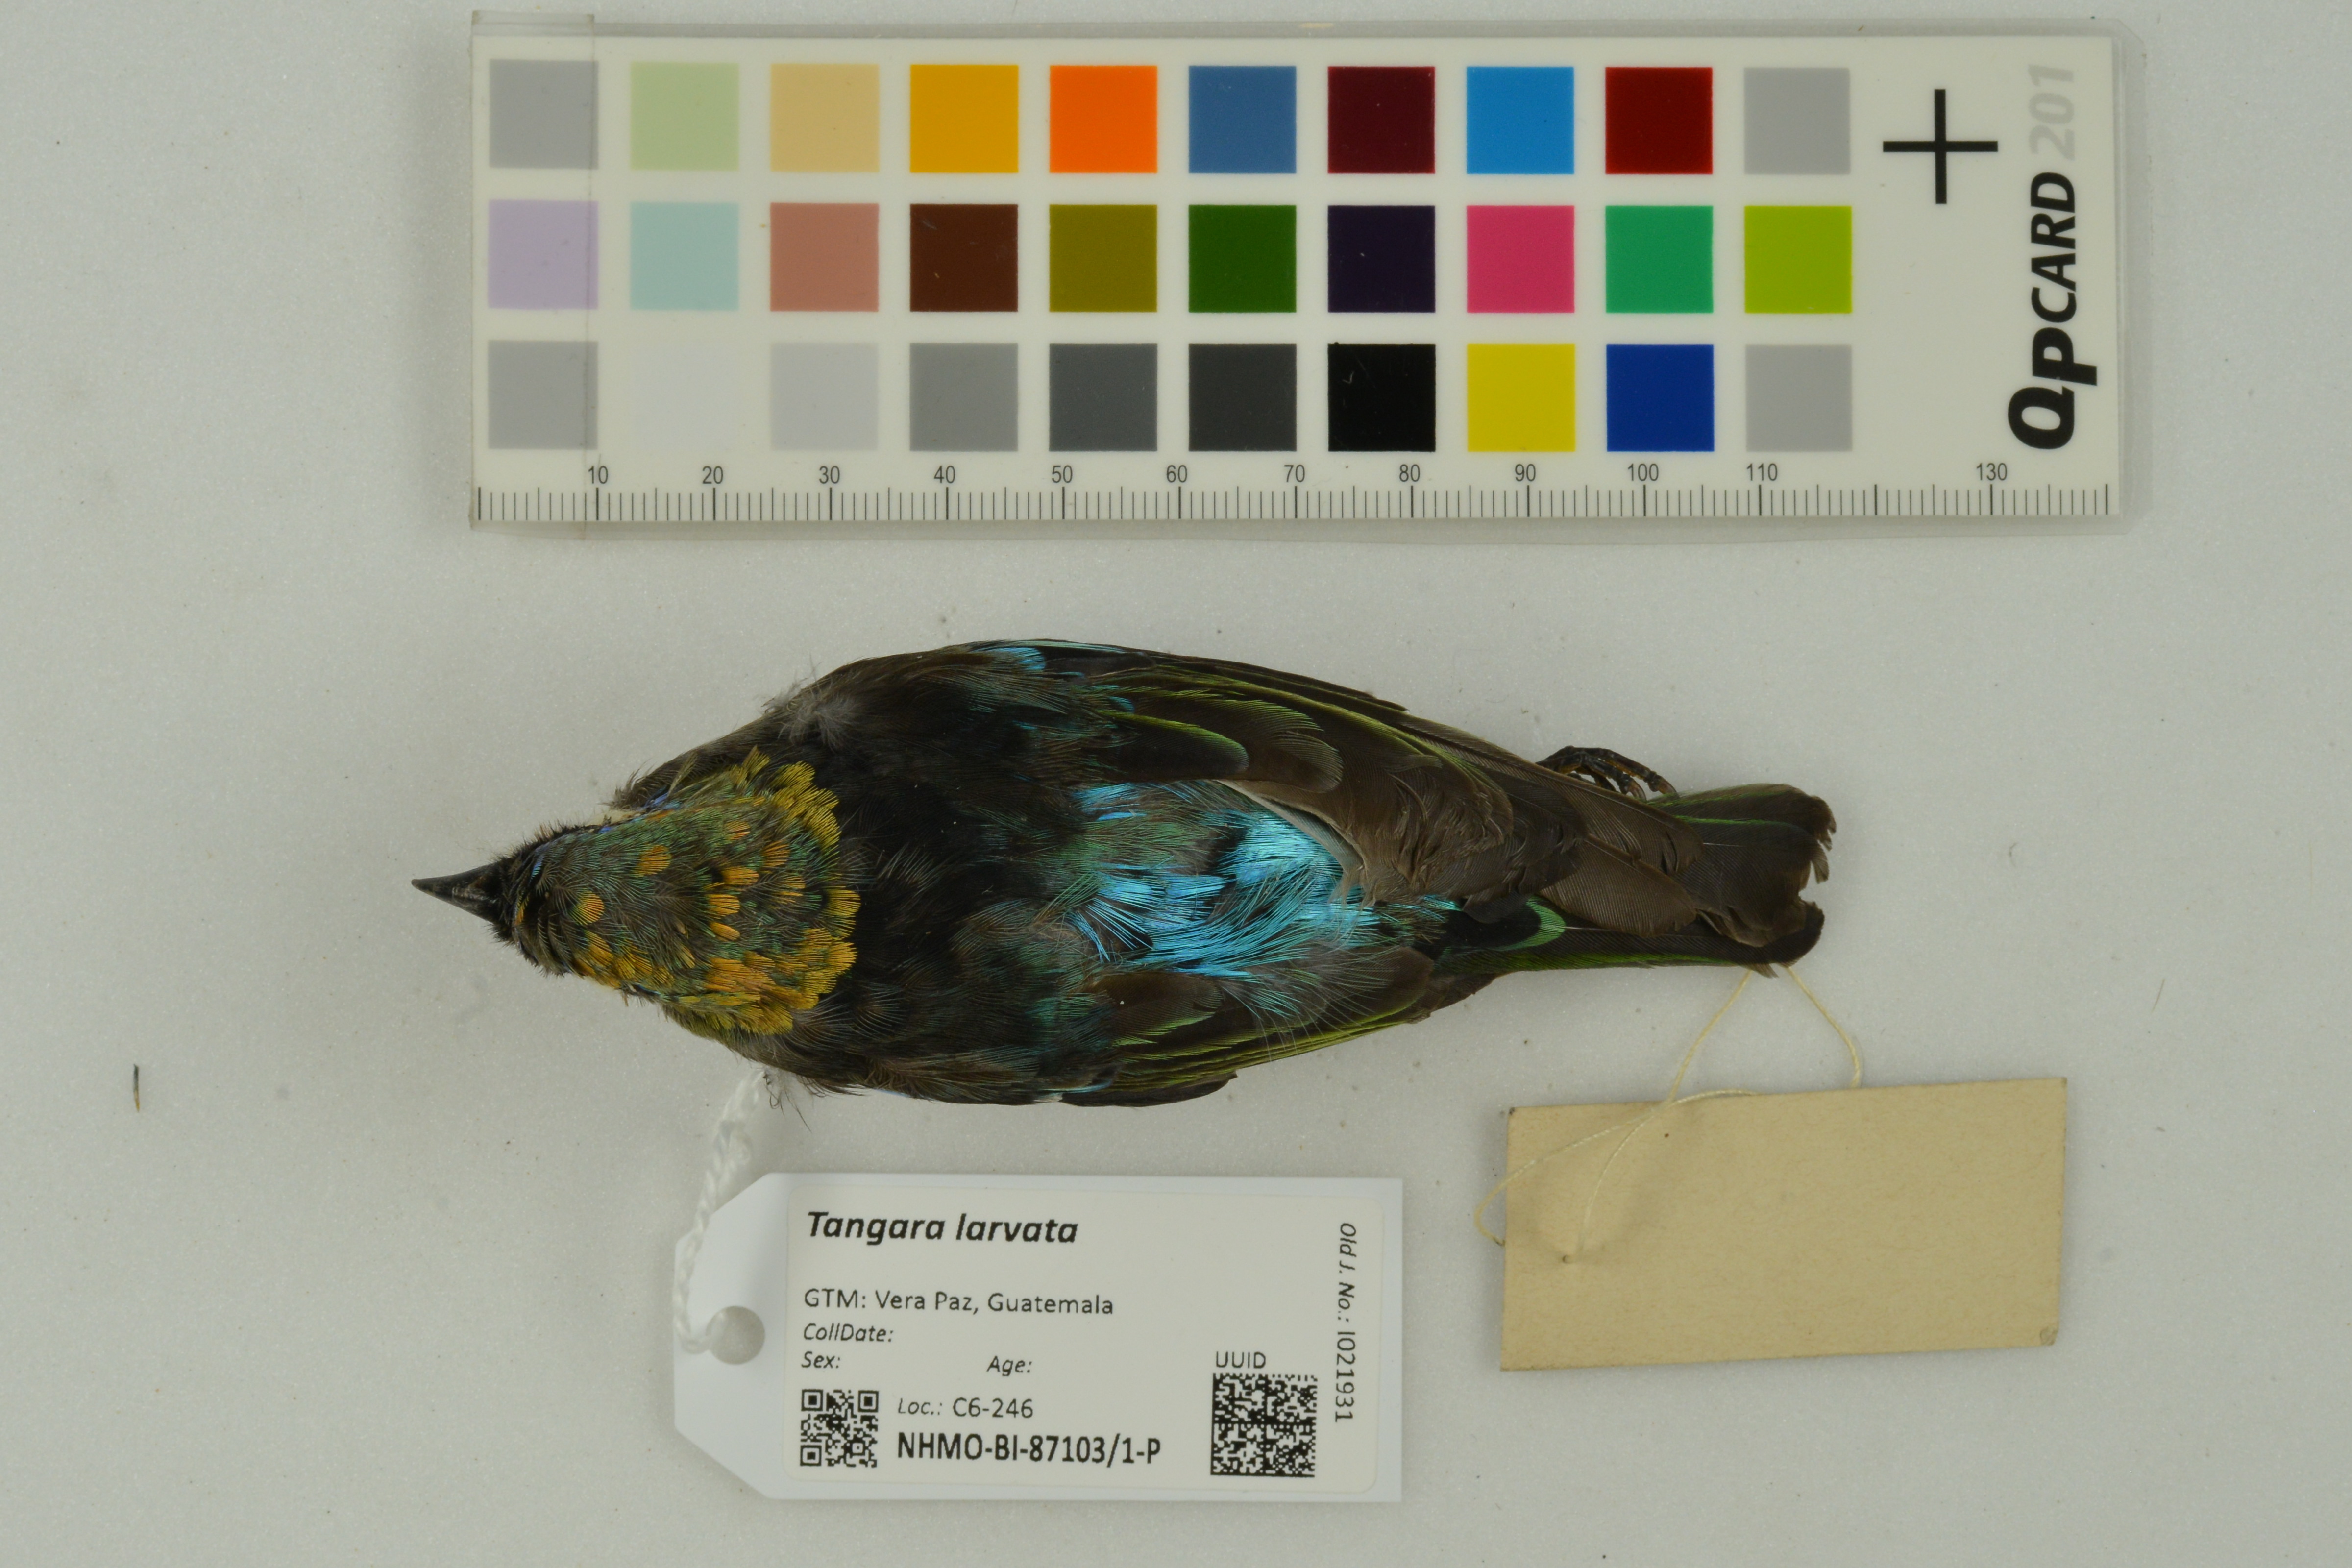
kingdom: Animalia
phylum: Chordata
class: Aves
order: Passeriformes
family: Thraupidae
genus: Stilpnia
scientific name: Stilpnia larvata
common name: Golden-hooded tanager
